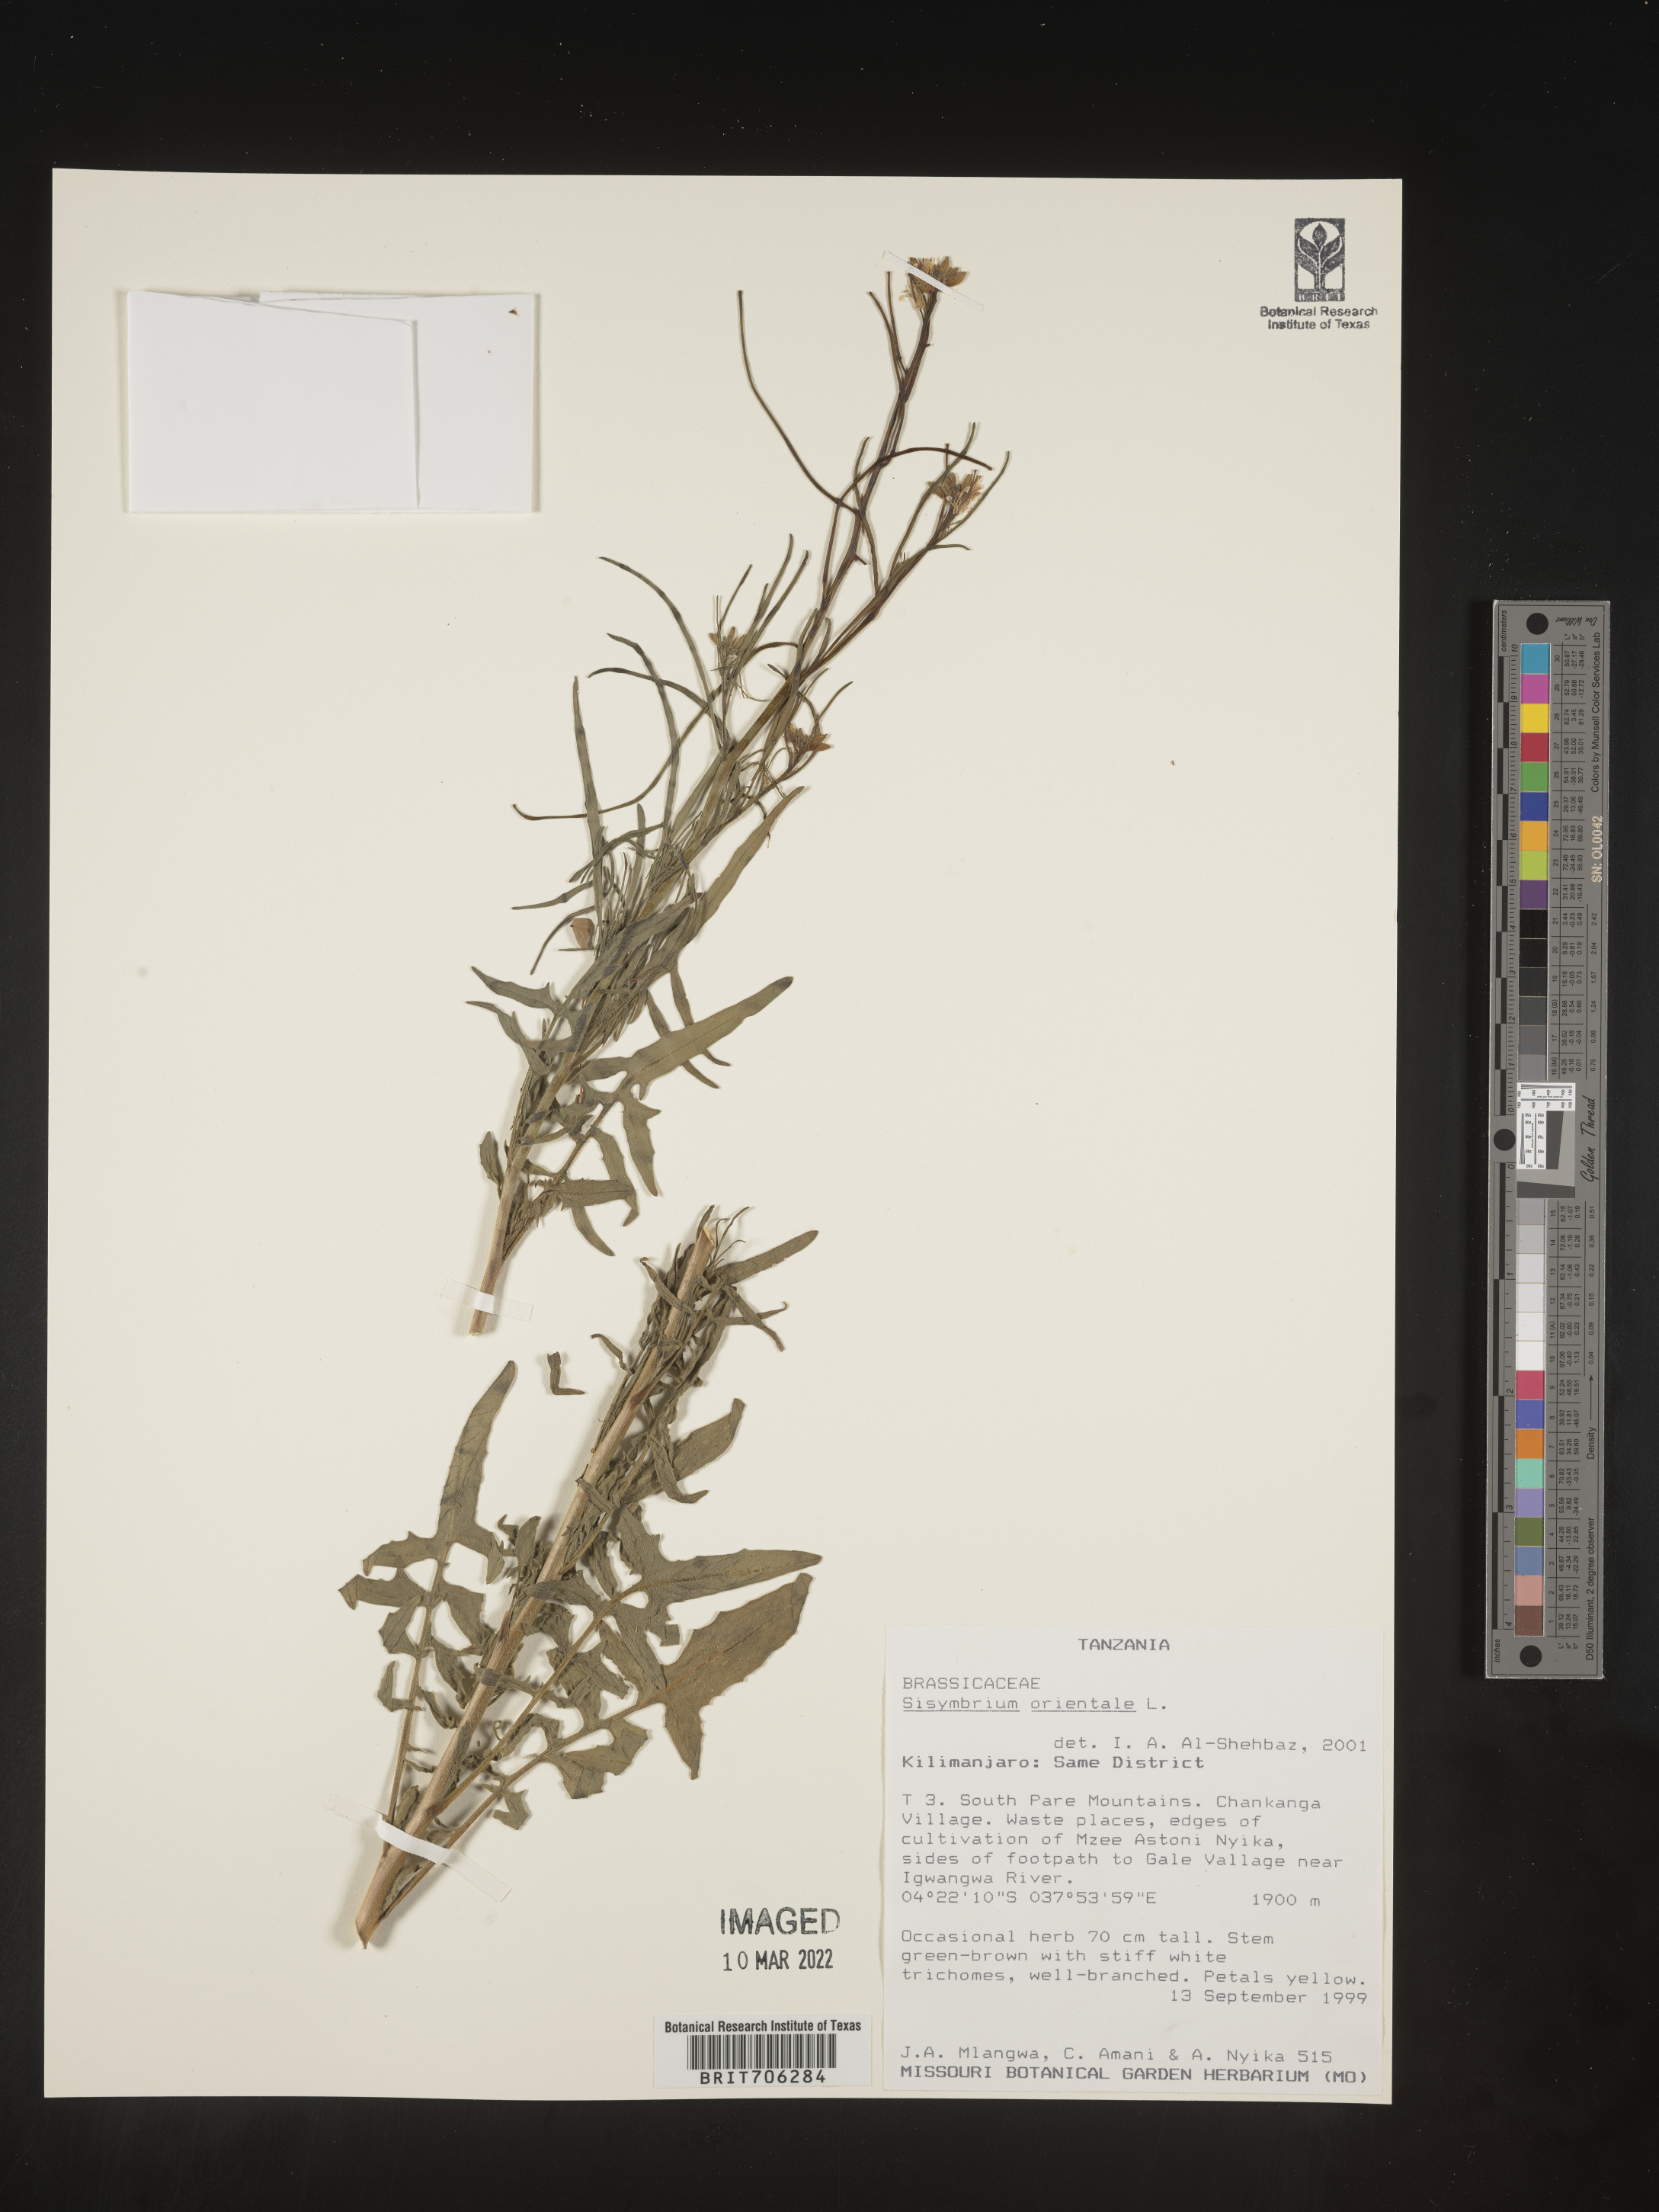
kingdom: Plantae
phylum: Tracheophyta
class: Magnoliopsida
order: Brassicales
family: Brassicaceae
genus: Sisymbrium
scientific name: Sisymbrium
